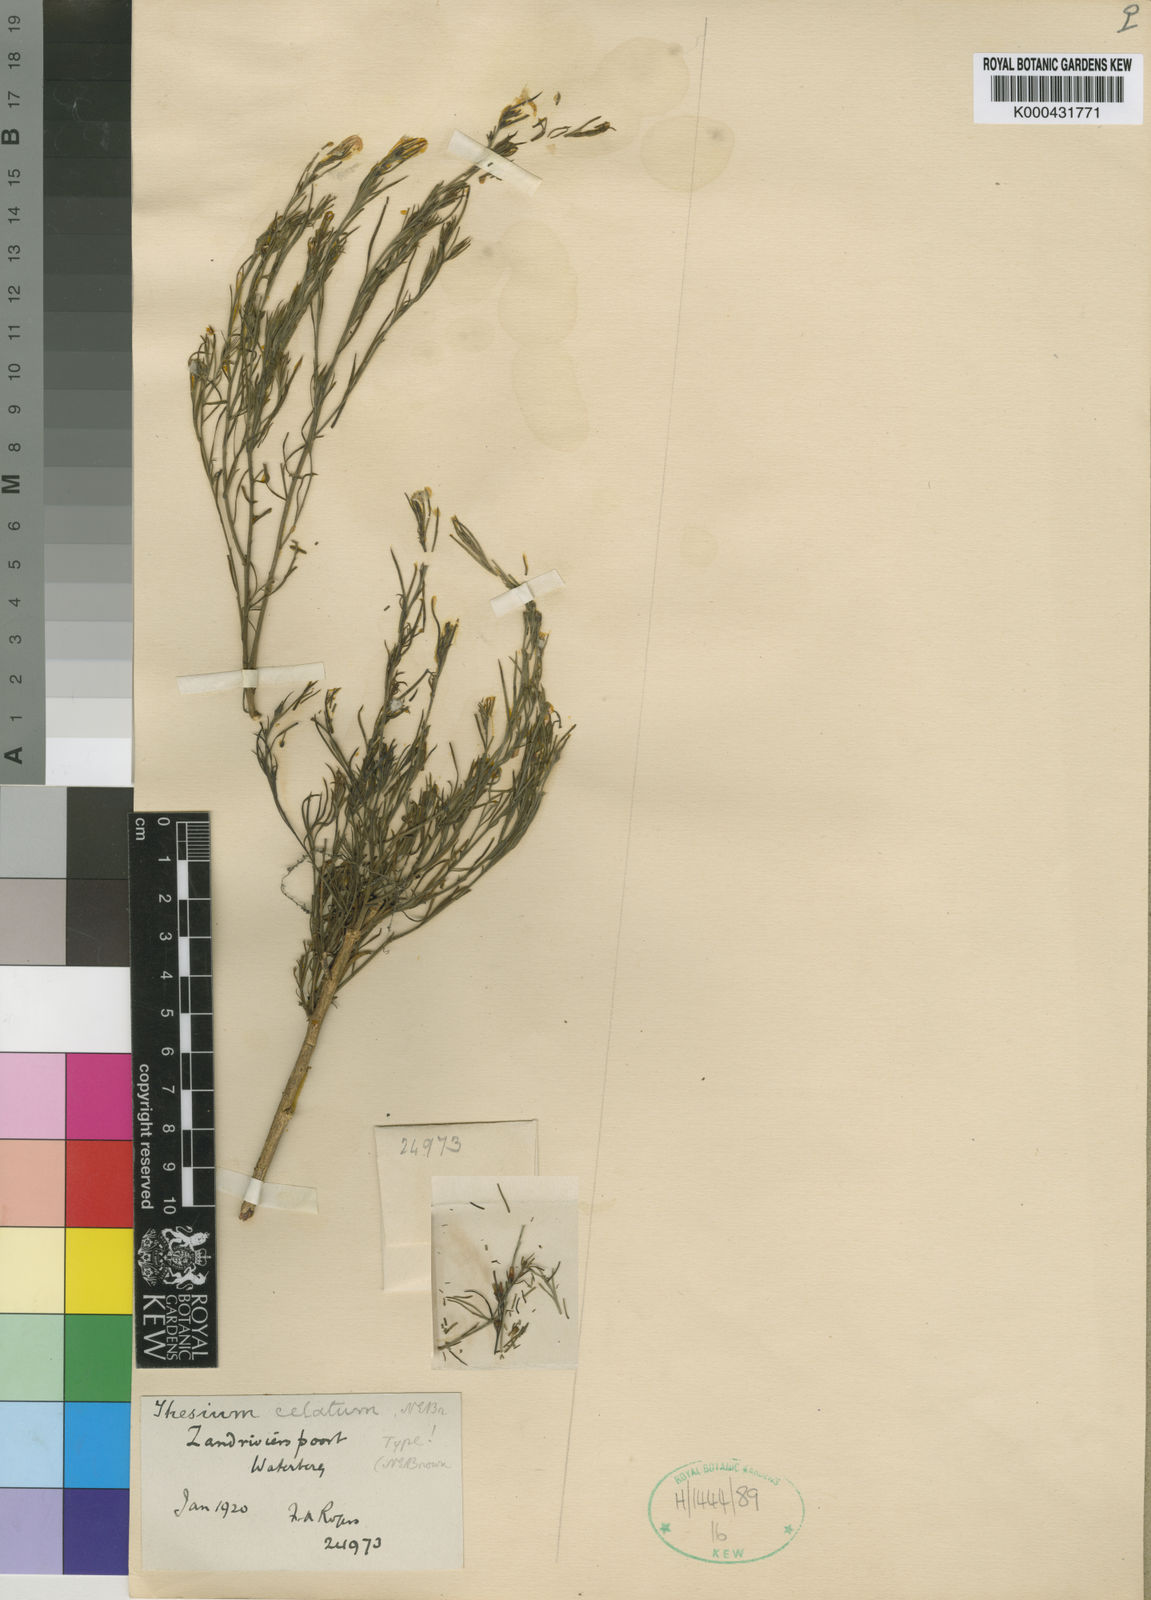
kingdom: Plantae
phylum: Tracheophyta
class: Magnoliopsida
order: Santalales
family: Thesiaceae
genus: Thesium
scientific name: Thesium celatum
